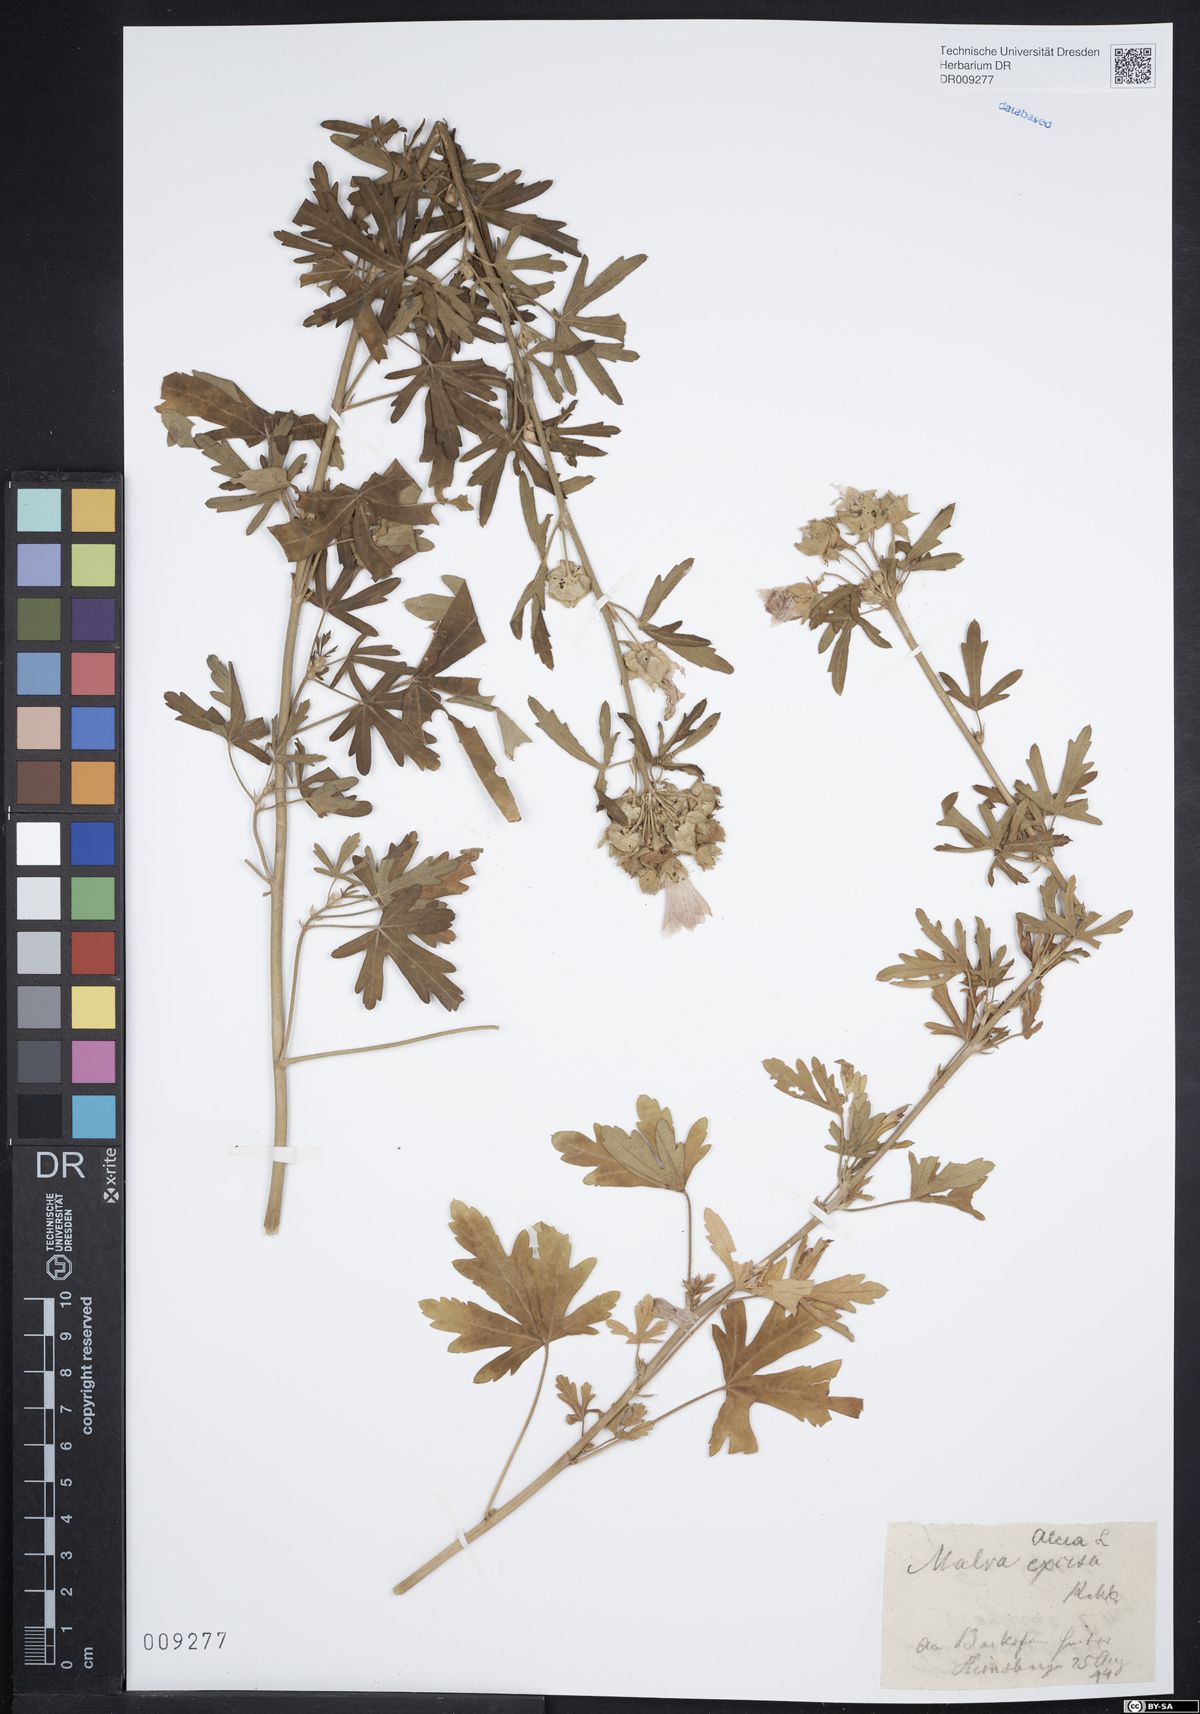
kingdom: Plantae
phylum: Tracheophyta
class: Magnoliopsida
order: Malvales
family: Malvaceae
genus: Malva
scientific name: Malva alcea
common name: Greater musk-mallow
